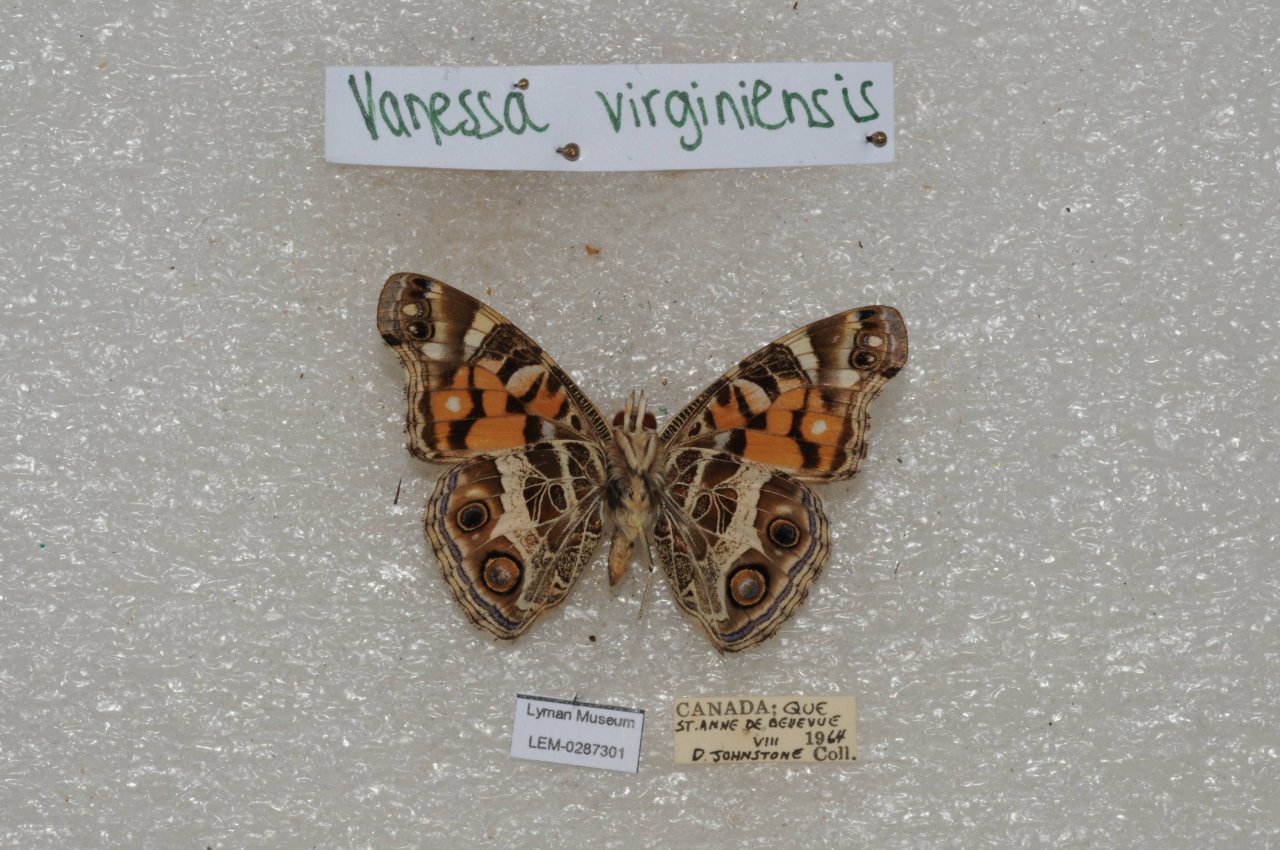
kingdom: Animalia
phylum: Arthropoda
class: Insecta
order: Lepidoptera
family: Nymphalidae
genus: Vanessa
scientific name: Vanessa virginiensis
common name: American Lady
